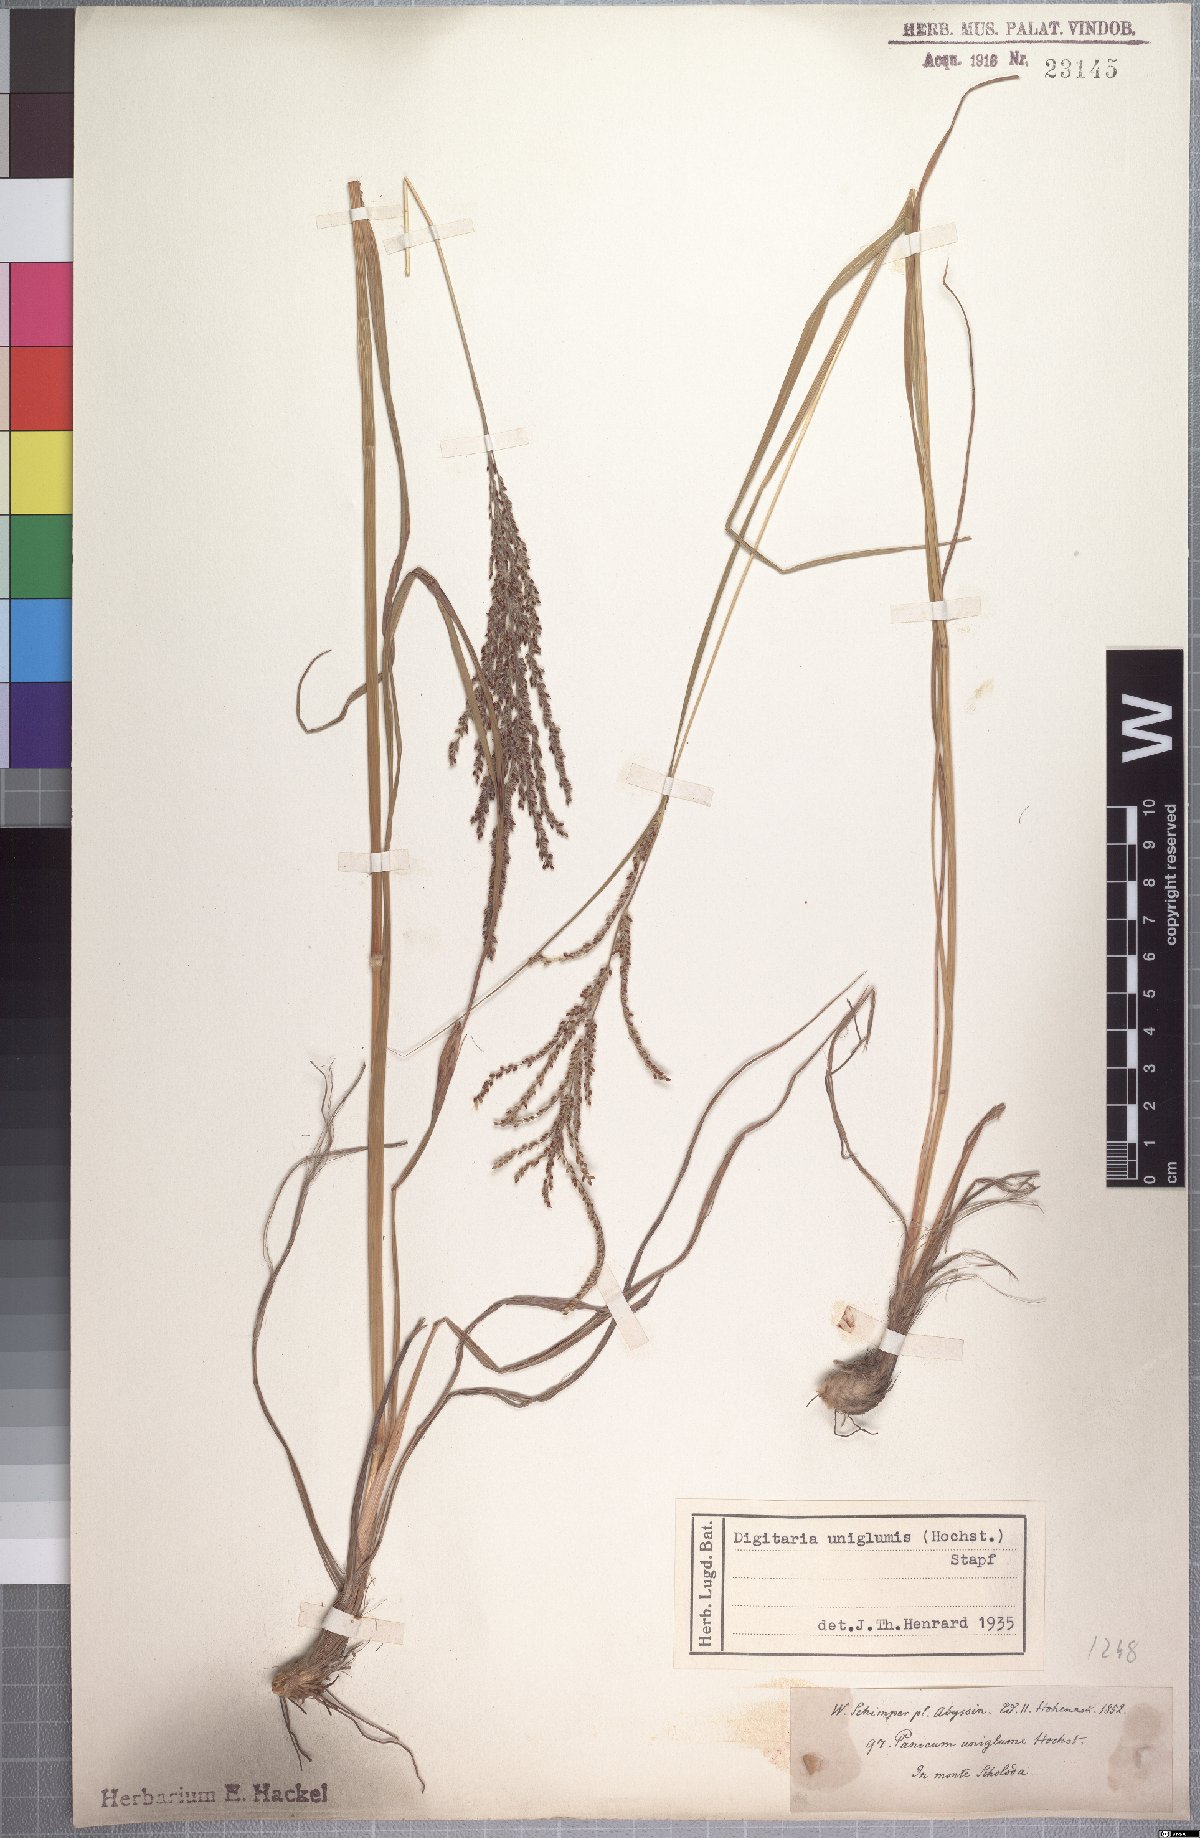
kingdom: Plantae
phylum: Tracheophyta
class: Liliopsida
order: Poales
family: Poaceae
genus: Digitaria
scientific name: Digitaria diagonalis
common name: Brown-seed finger grass
